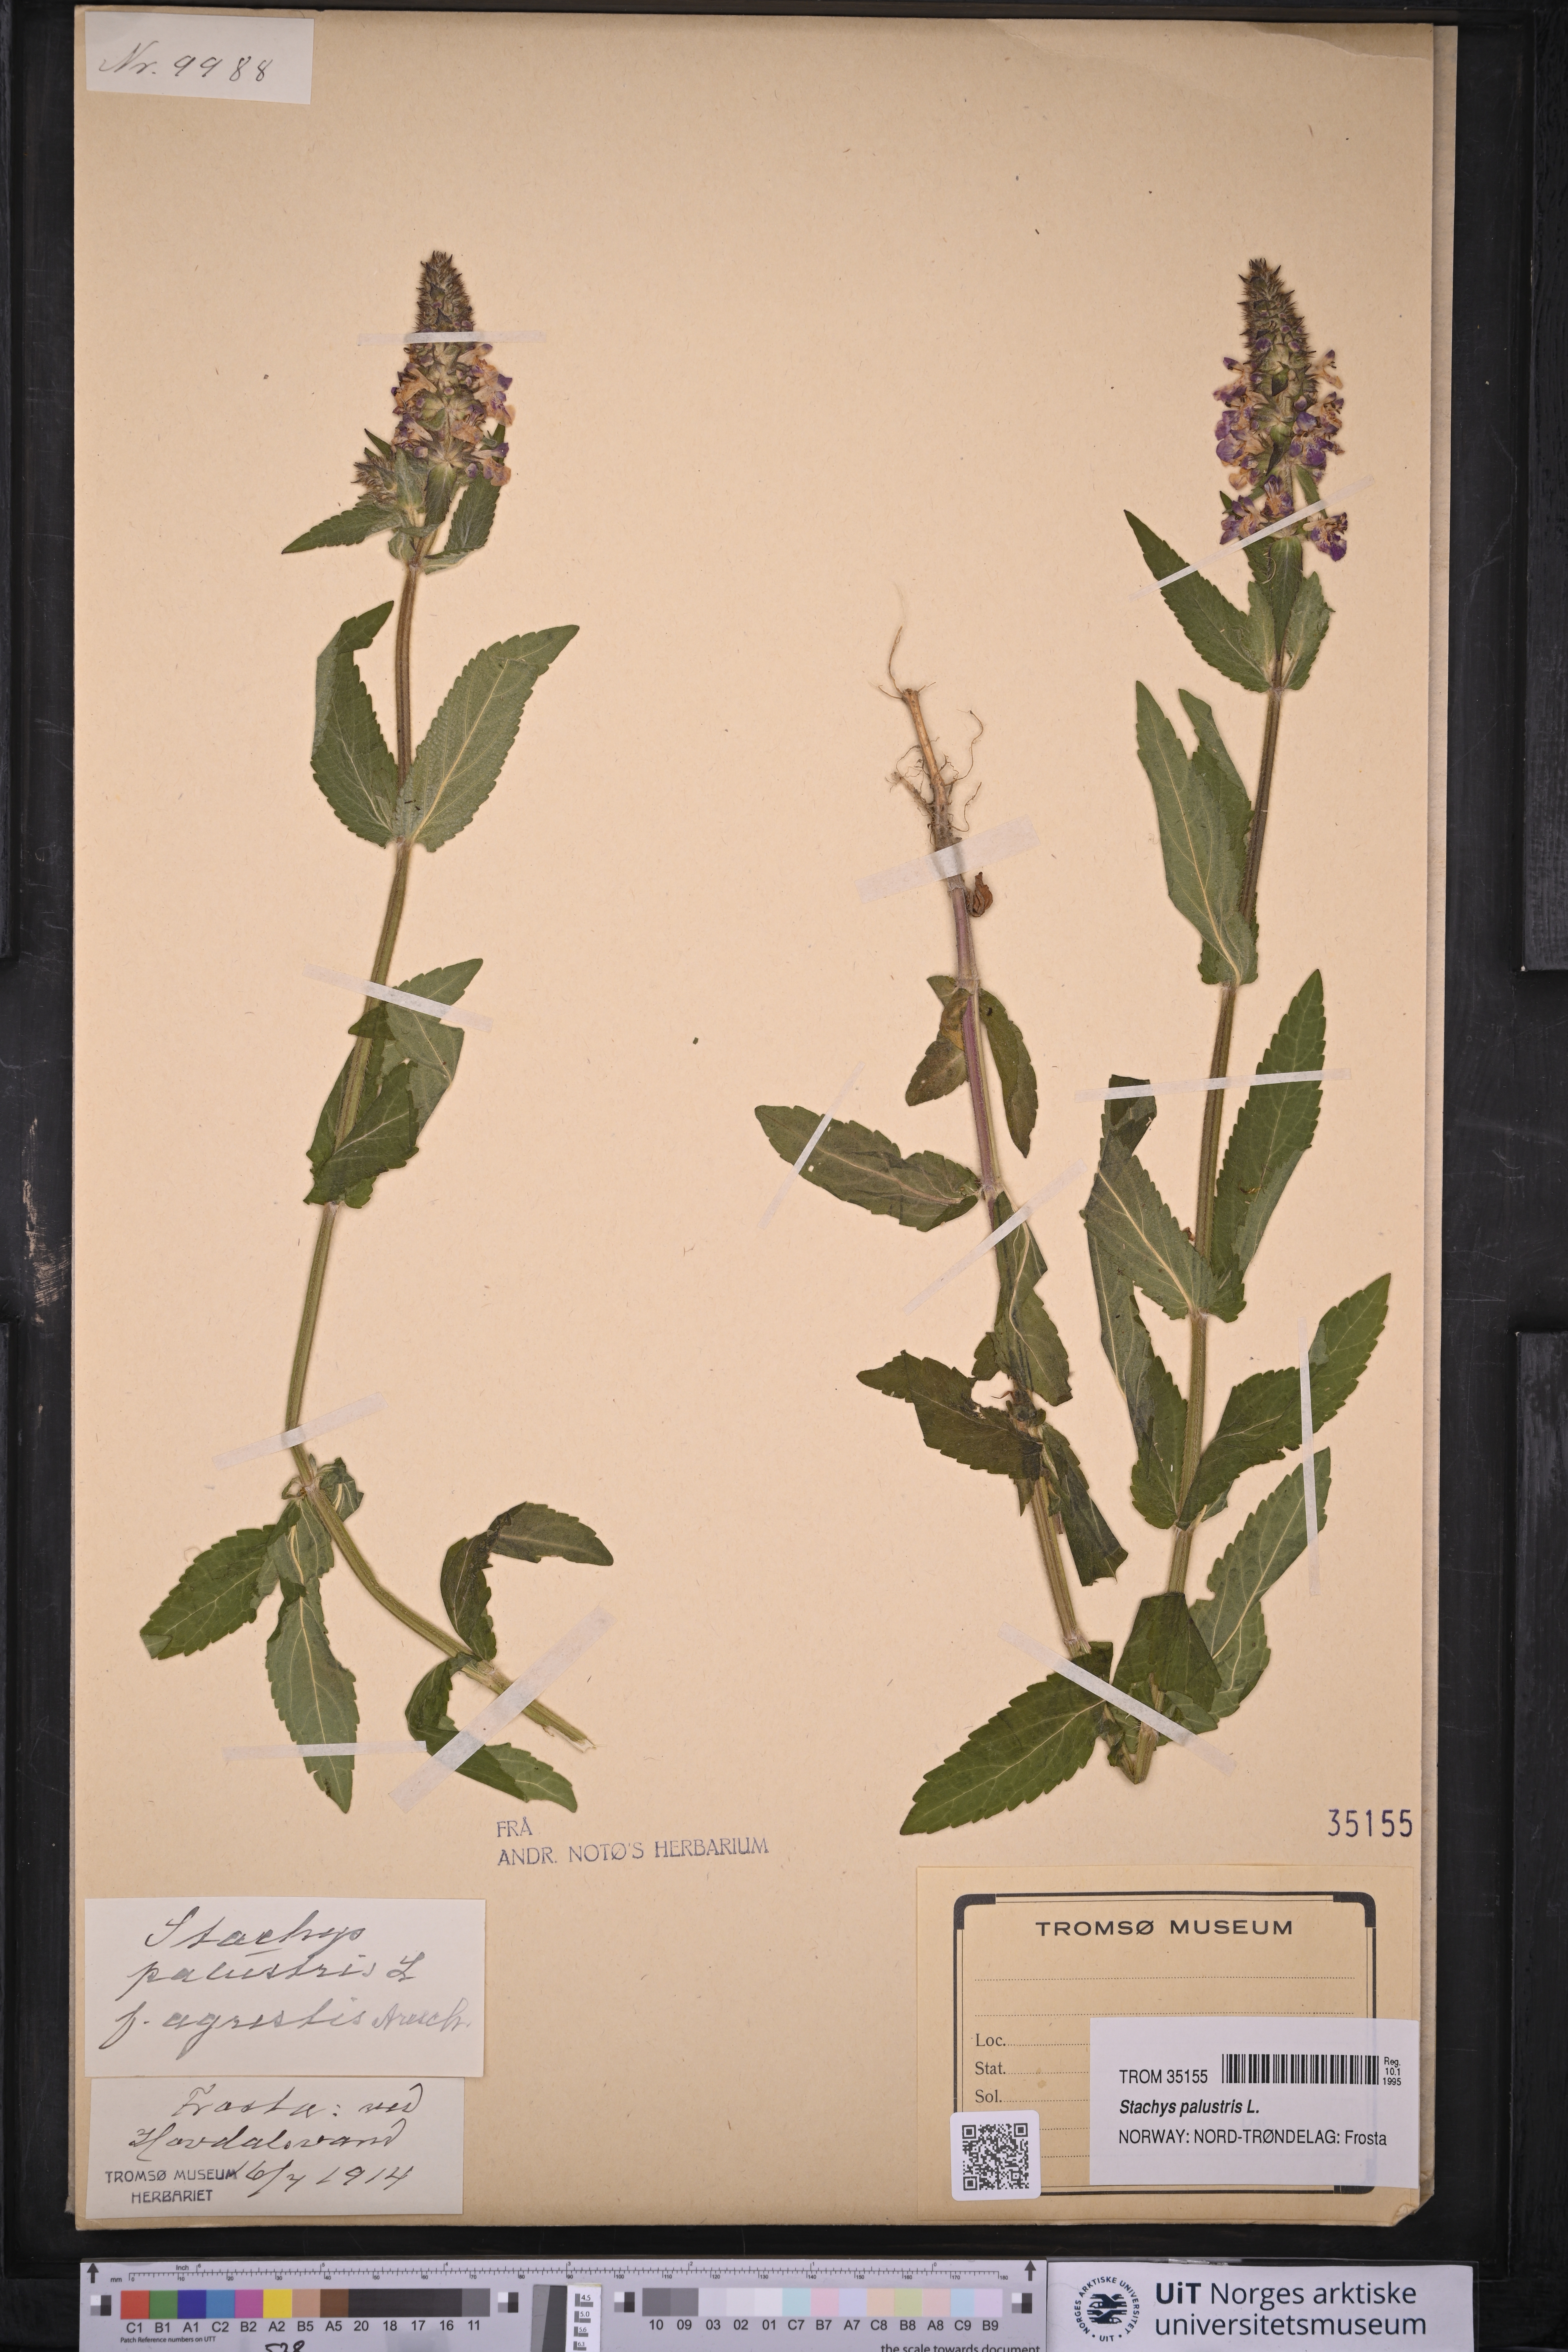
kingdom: Plantae
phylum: Tracheophyta
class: Magnoliopsida
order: Lamiales
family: Lamiaceae
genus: Stachys
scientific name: Stachys palustris
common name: Marsh woundwort
